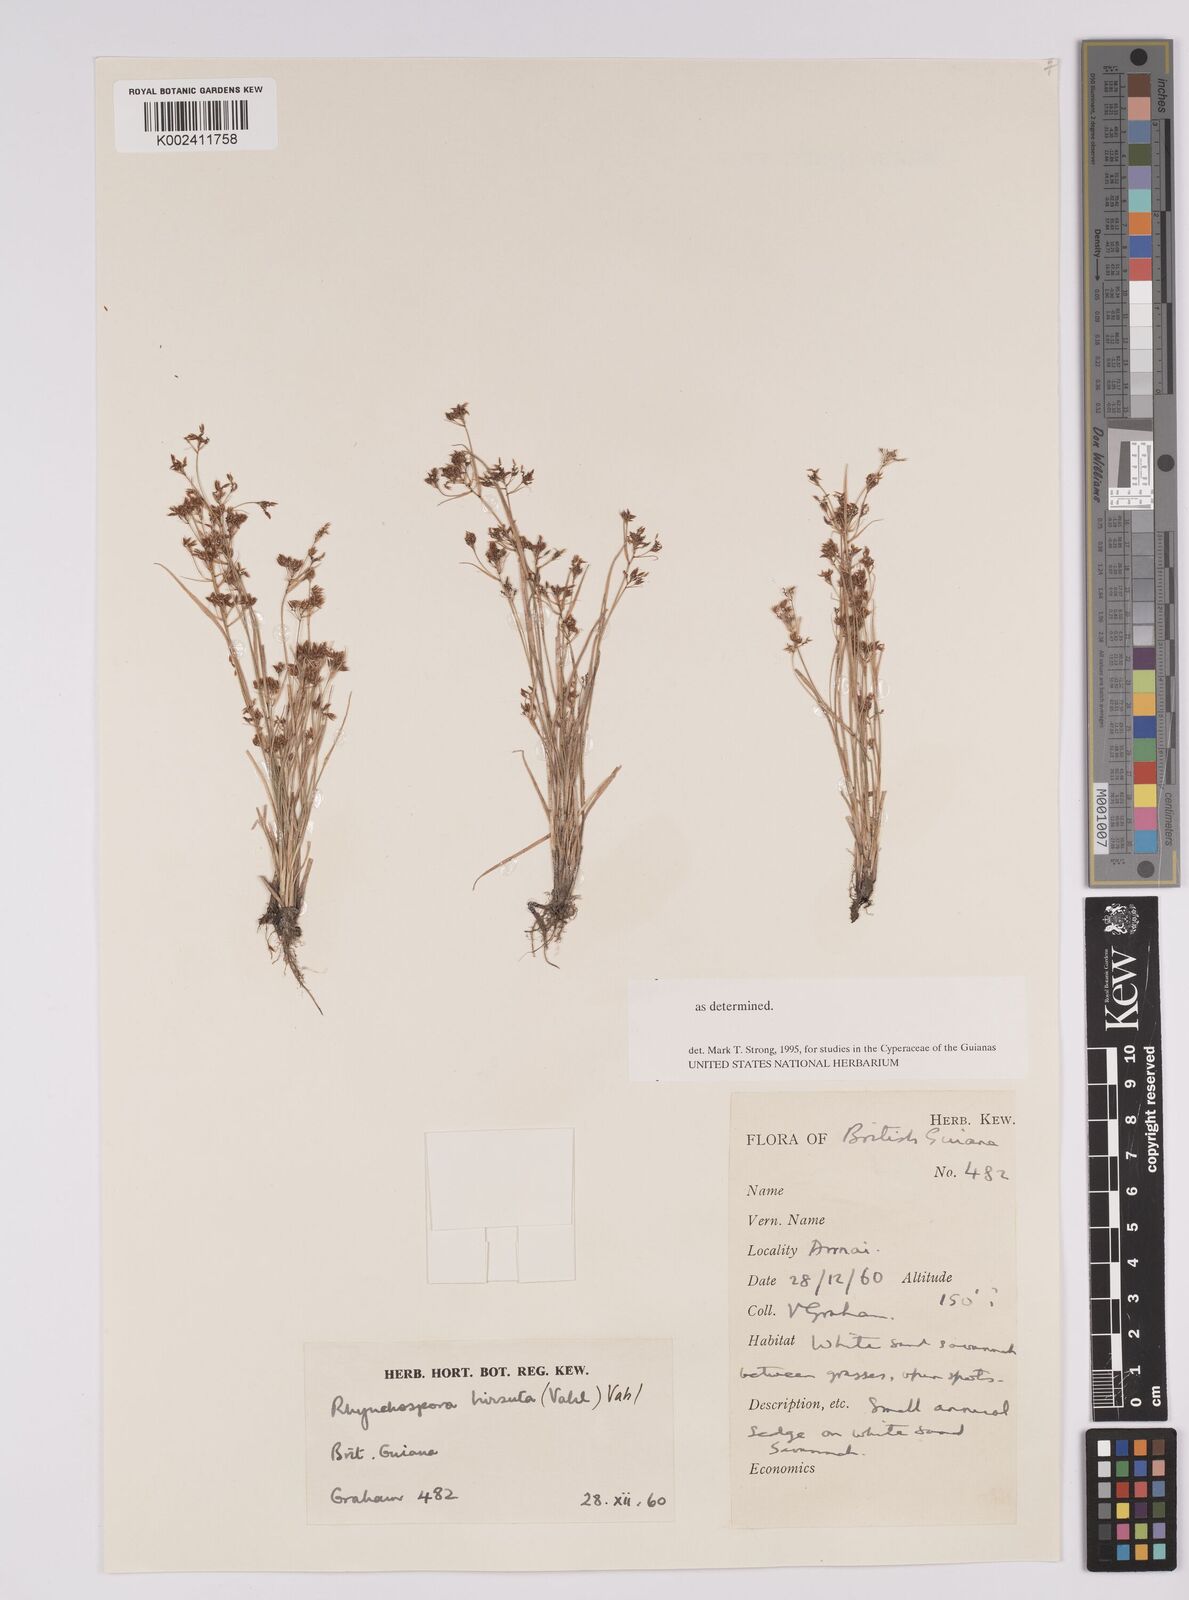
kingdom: Plantae
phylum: Tracheophyta
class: Liliopsida
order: Poales
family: Cyperaceae
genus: Rhynchospora
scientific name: Rhynchospora hirsuta
